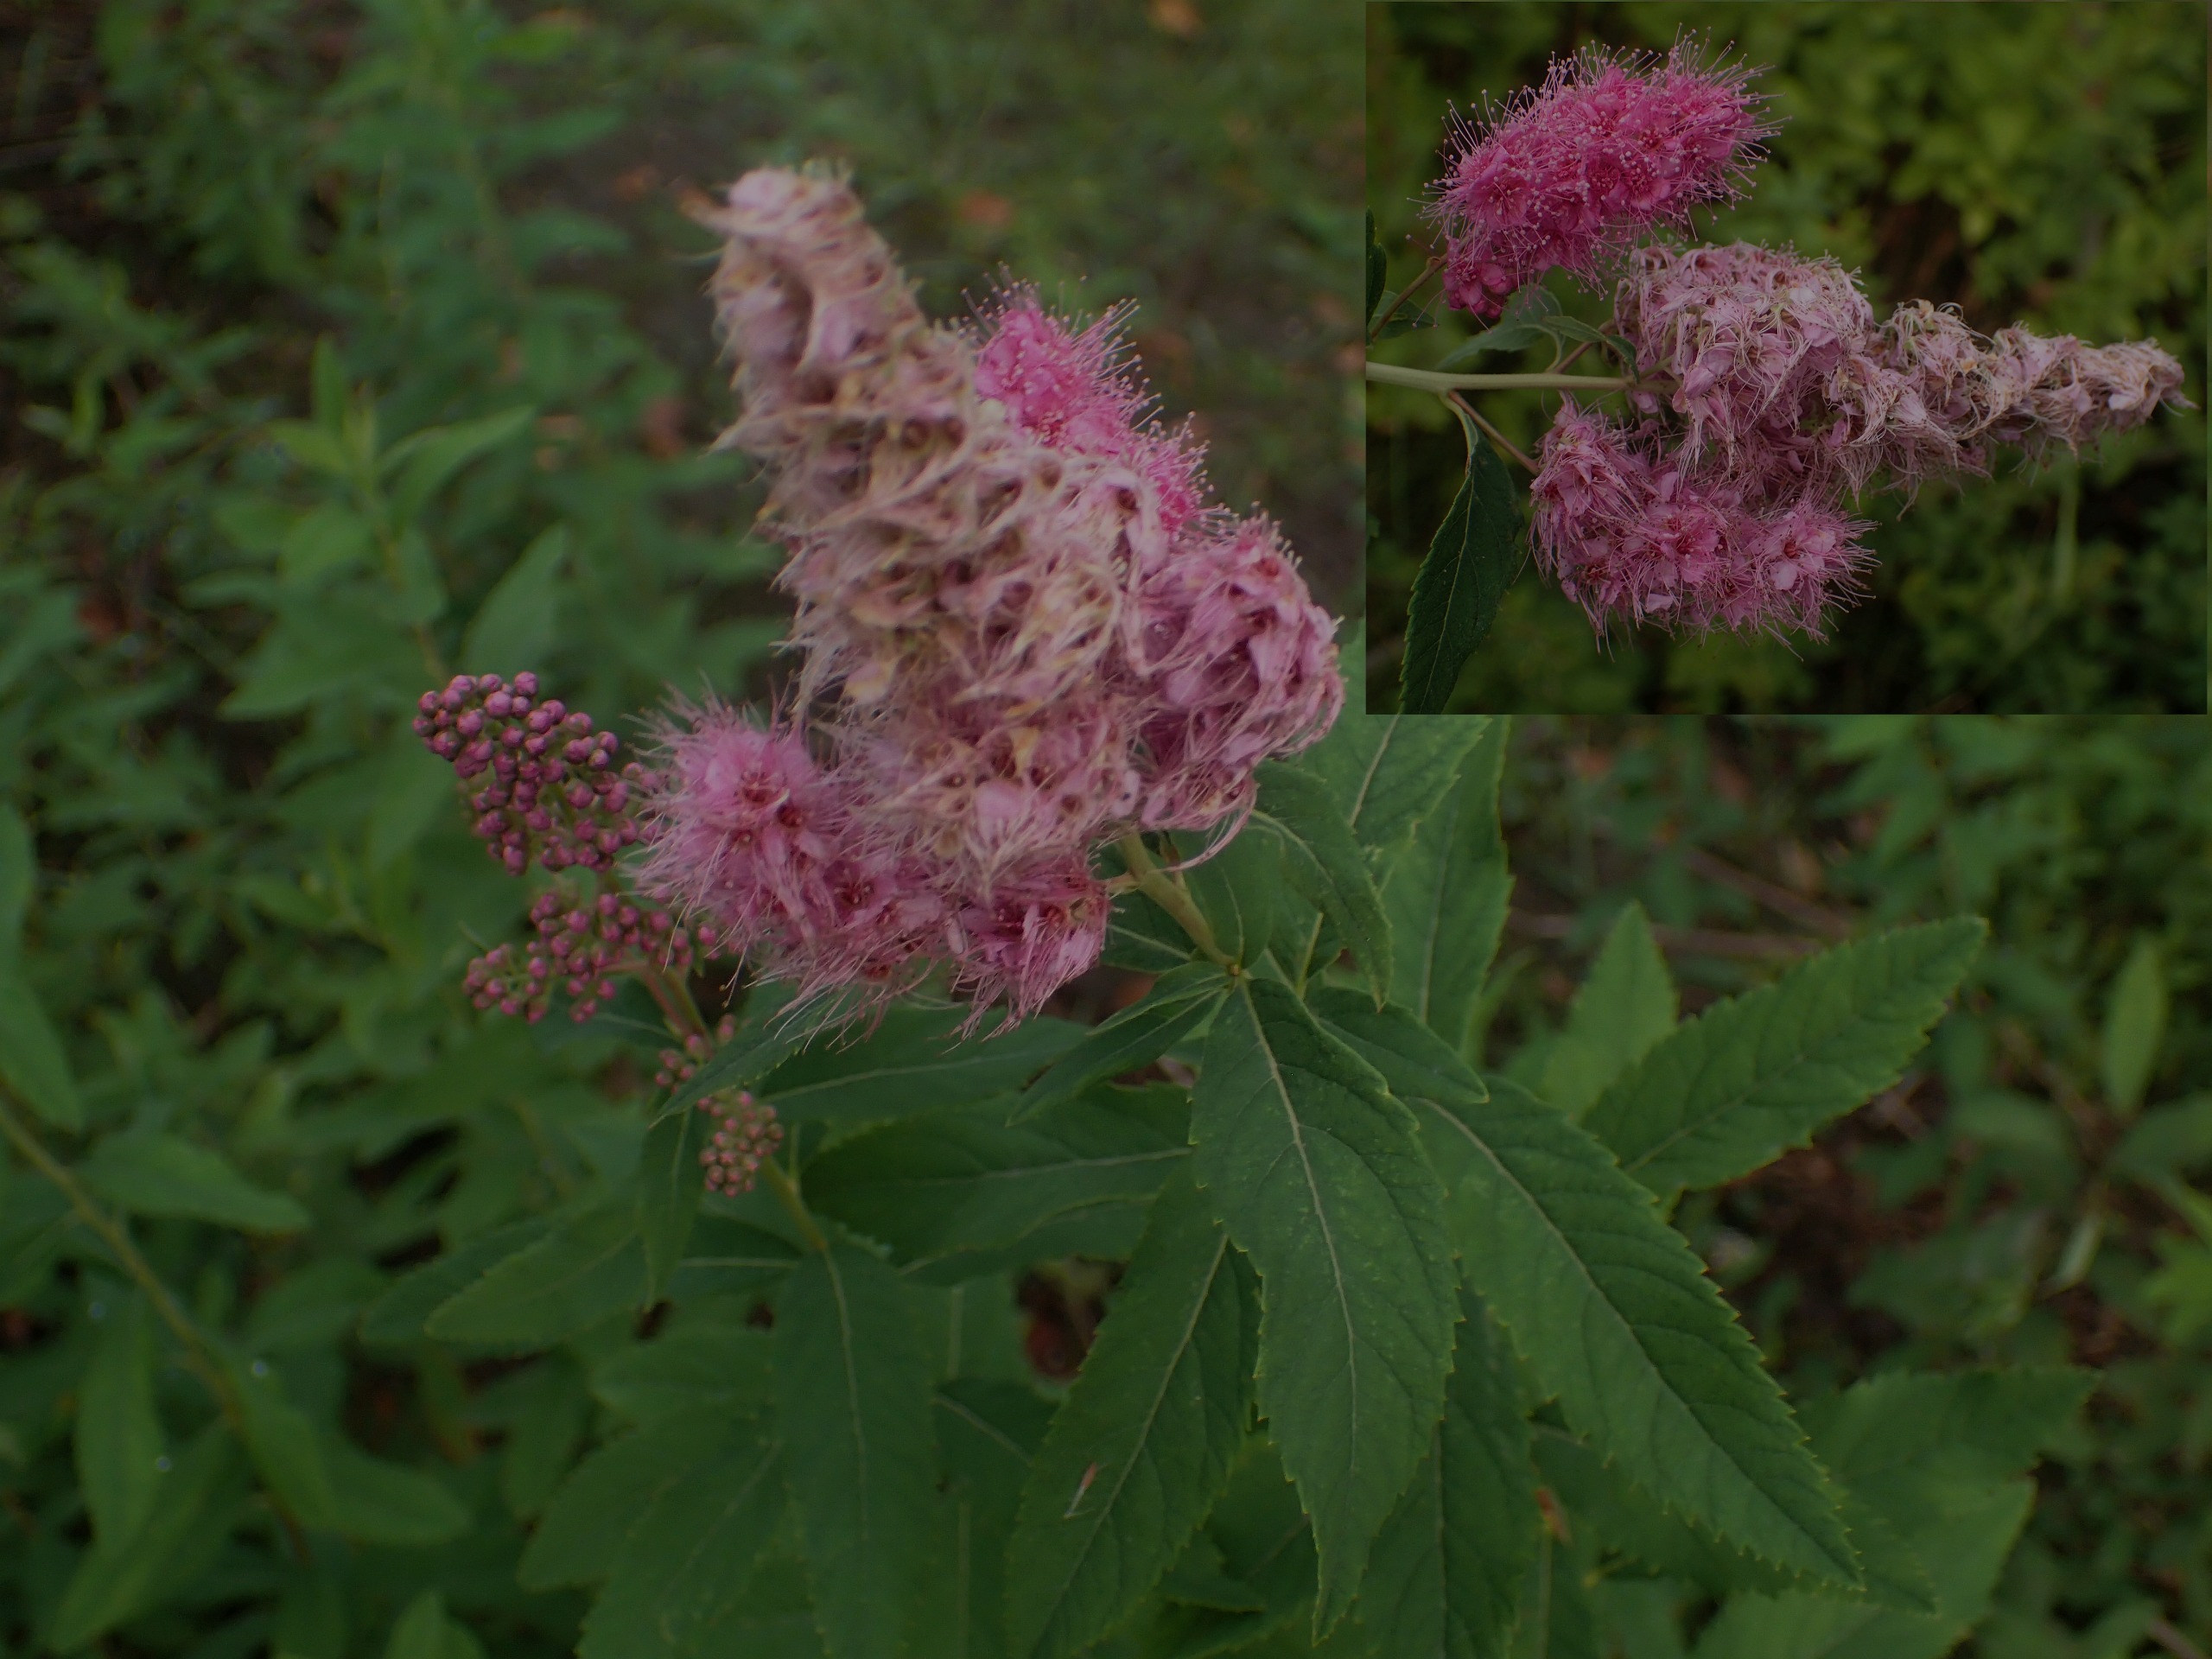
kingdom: Plantae
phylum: Tracheophyta
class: Magnoliopsida
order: Rosales
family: Rosaceae
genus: Spiraea
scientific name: Spiraea billardii
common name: Klase-spiræa
